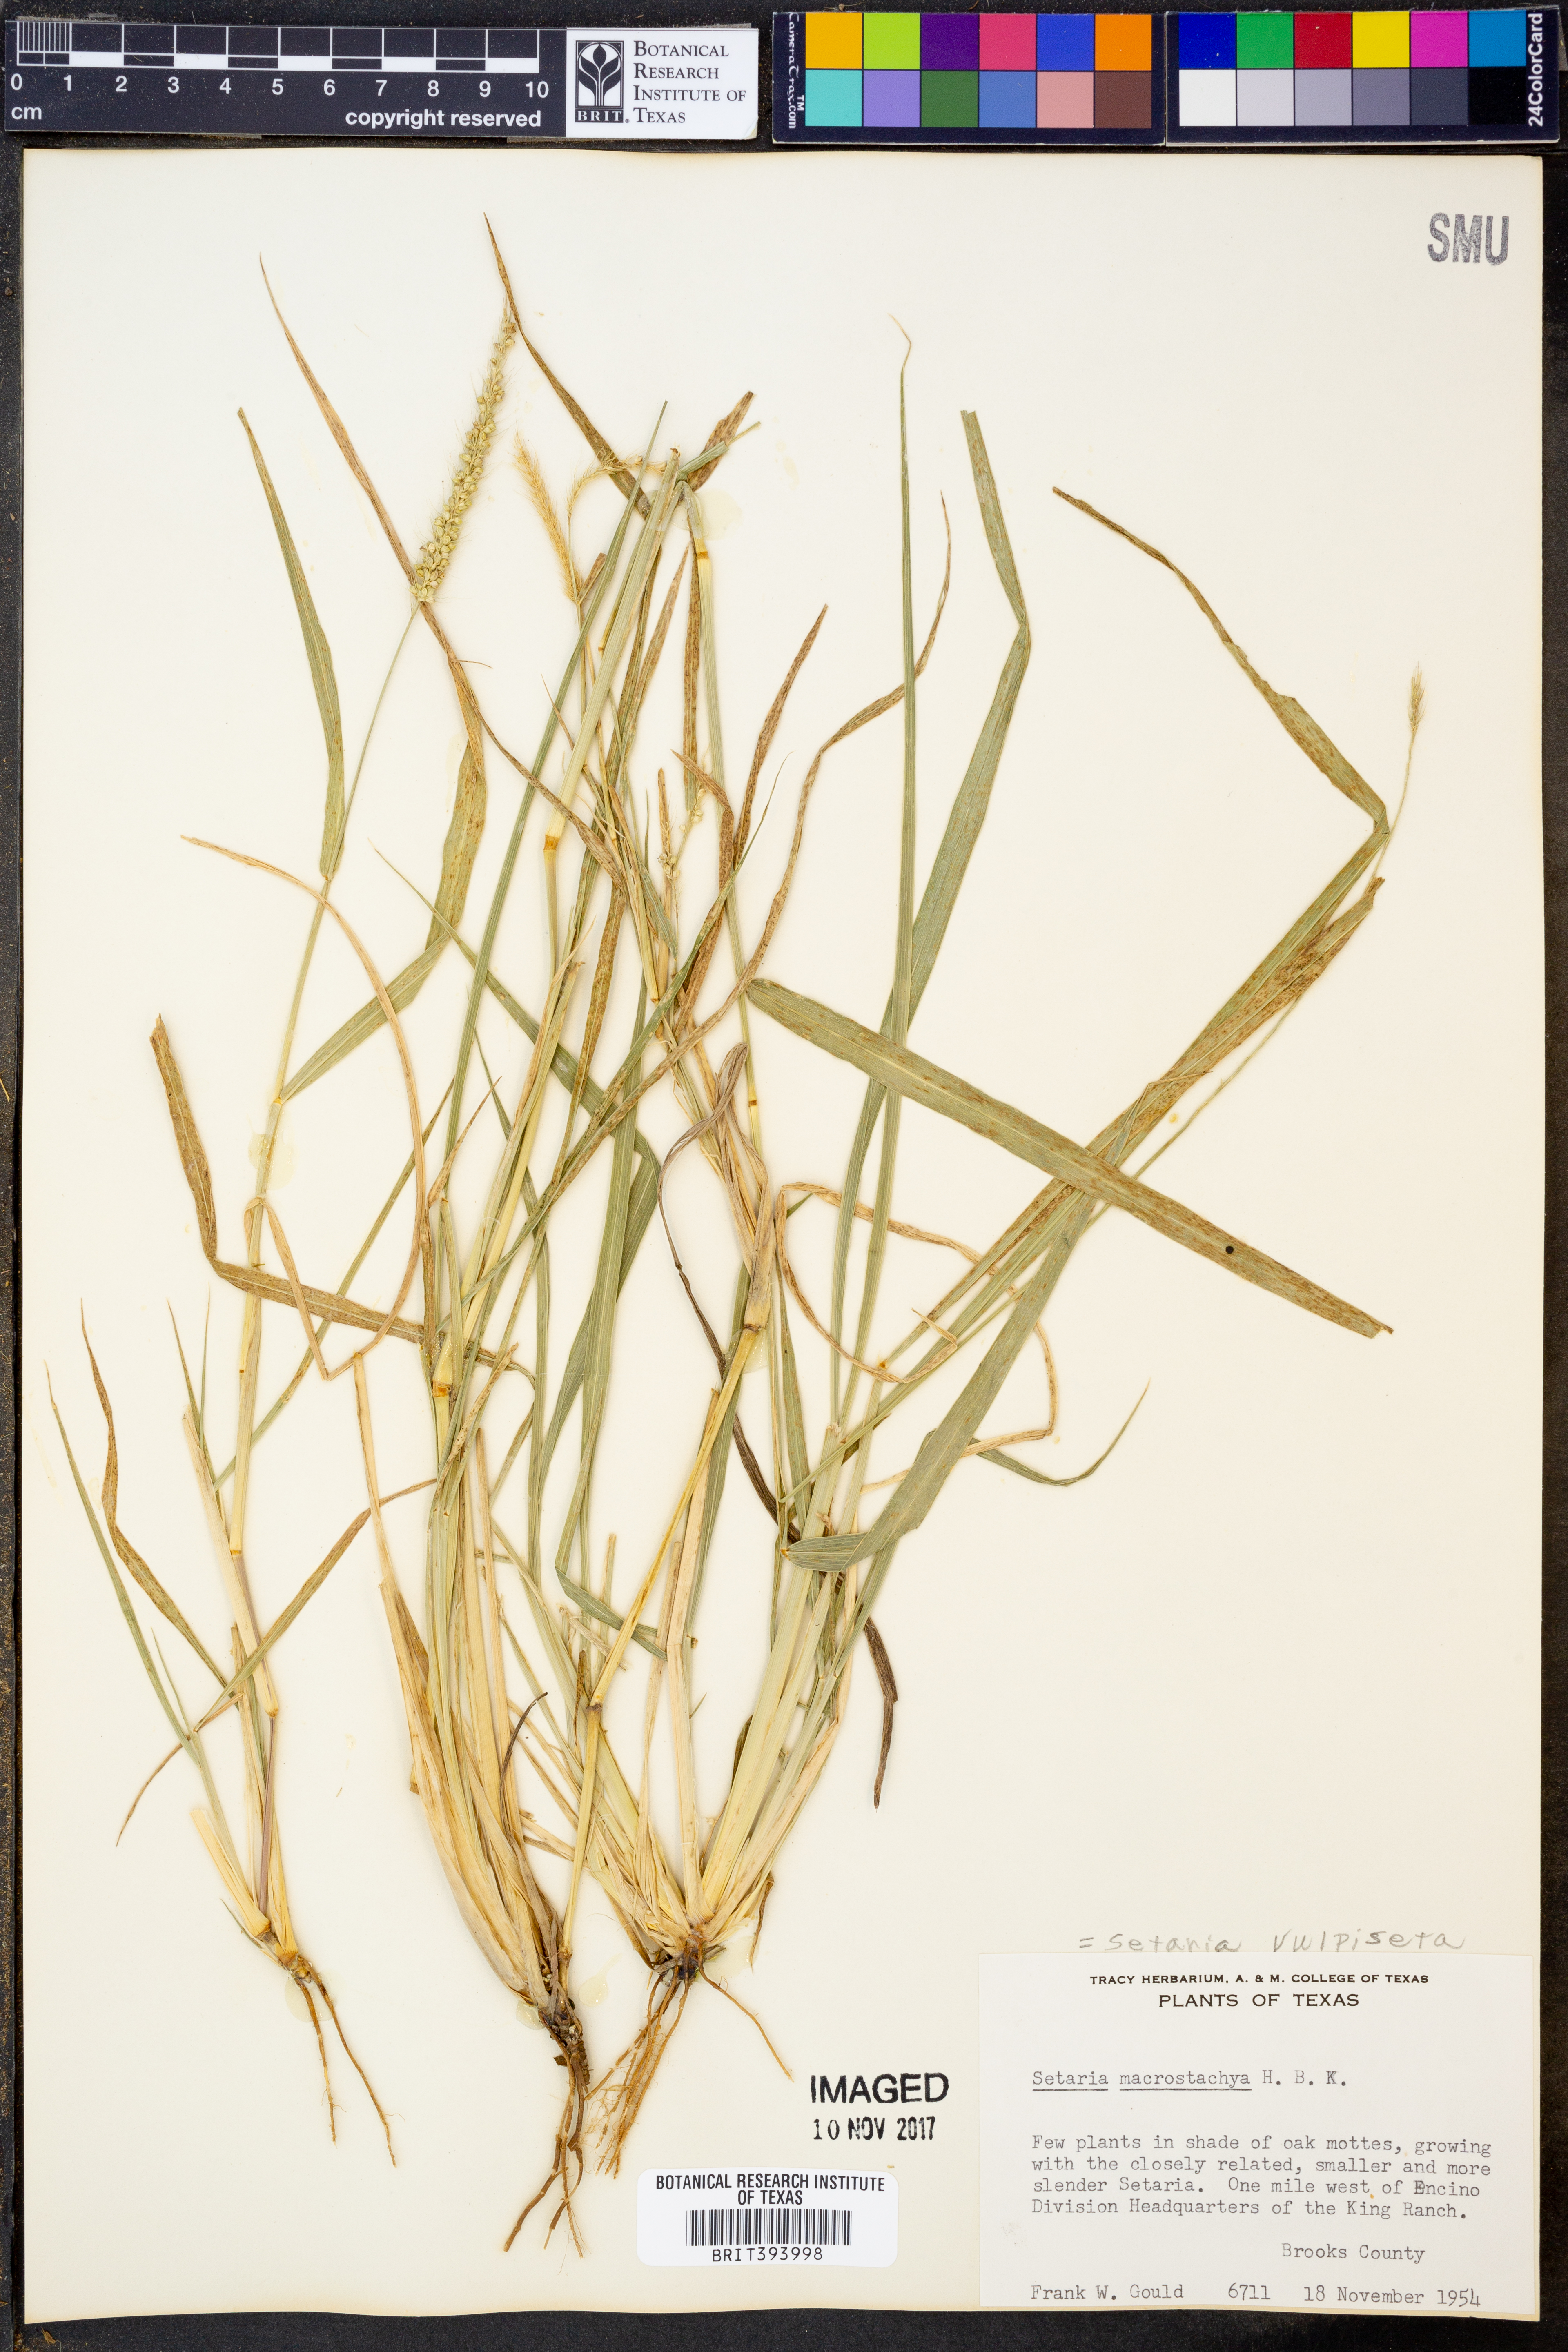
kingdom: Plantae
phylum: Tracheophyta
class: Liliopsida
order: Poales
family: Poaceae
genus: Setaria
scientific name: Setaria vulpiseta
